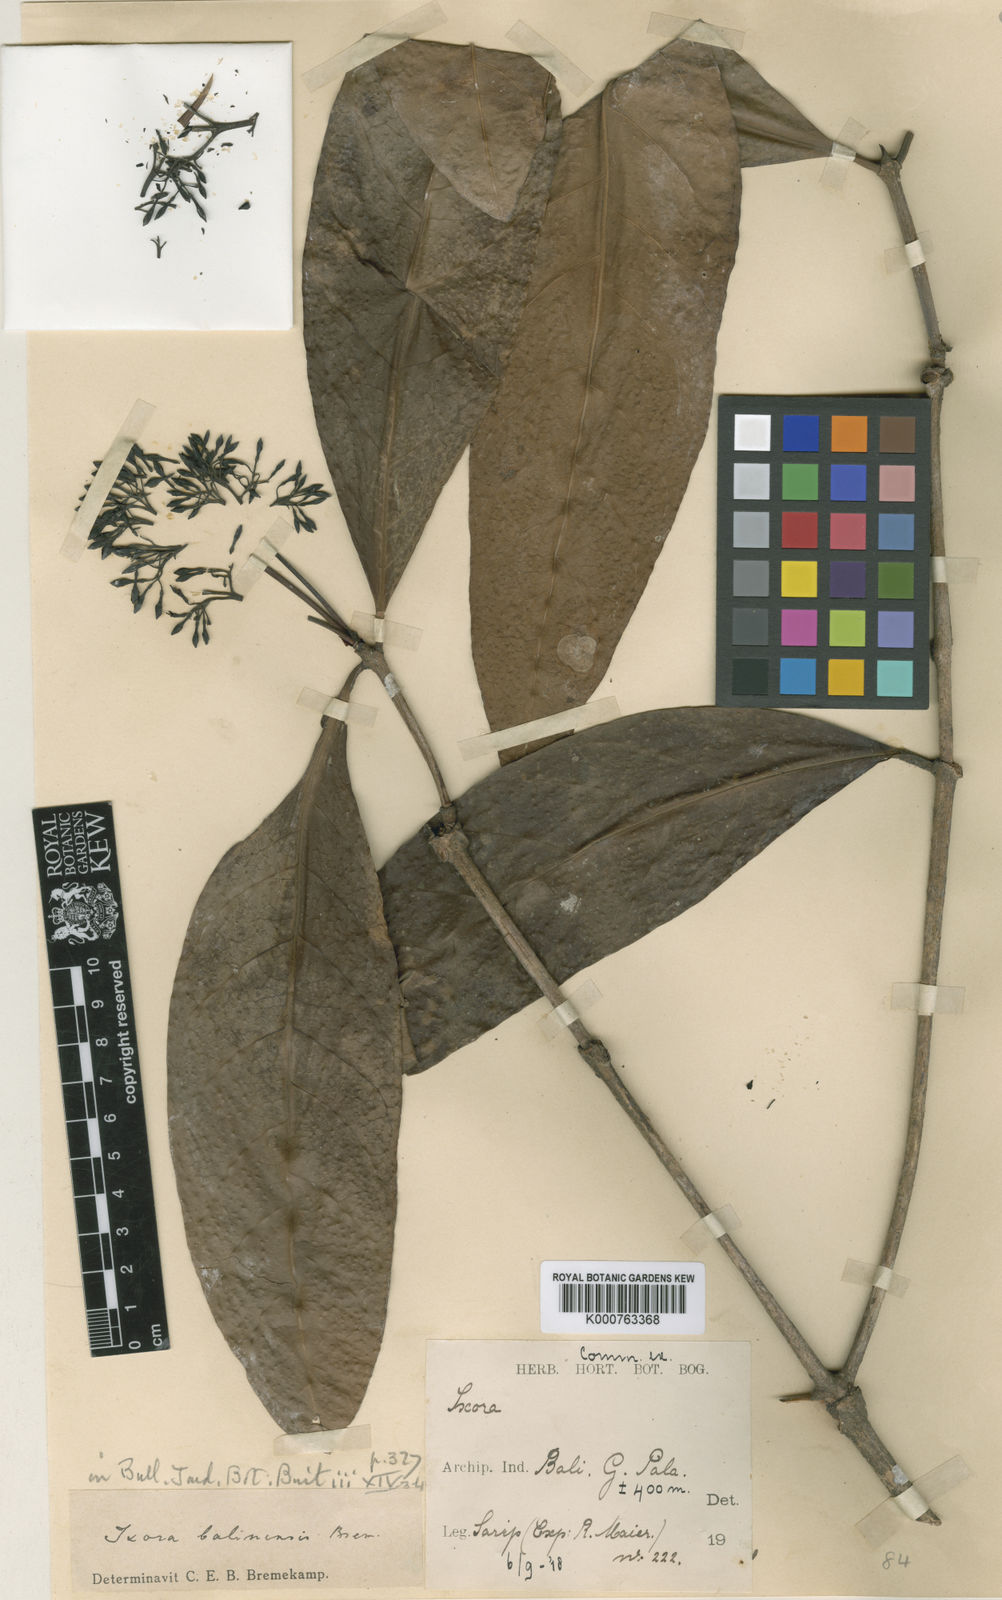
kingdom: Plantae
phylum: Tracheophyta
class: Magnoliopsida
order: Gentianales
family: Rubiaceae
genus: Ixora
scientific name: Ixora balinensis
